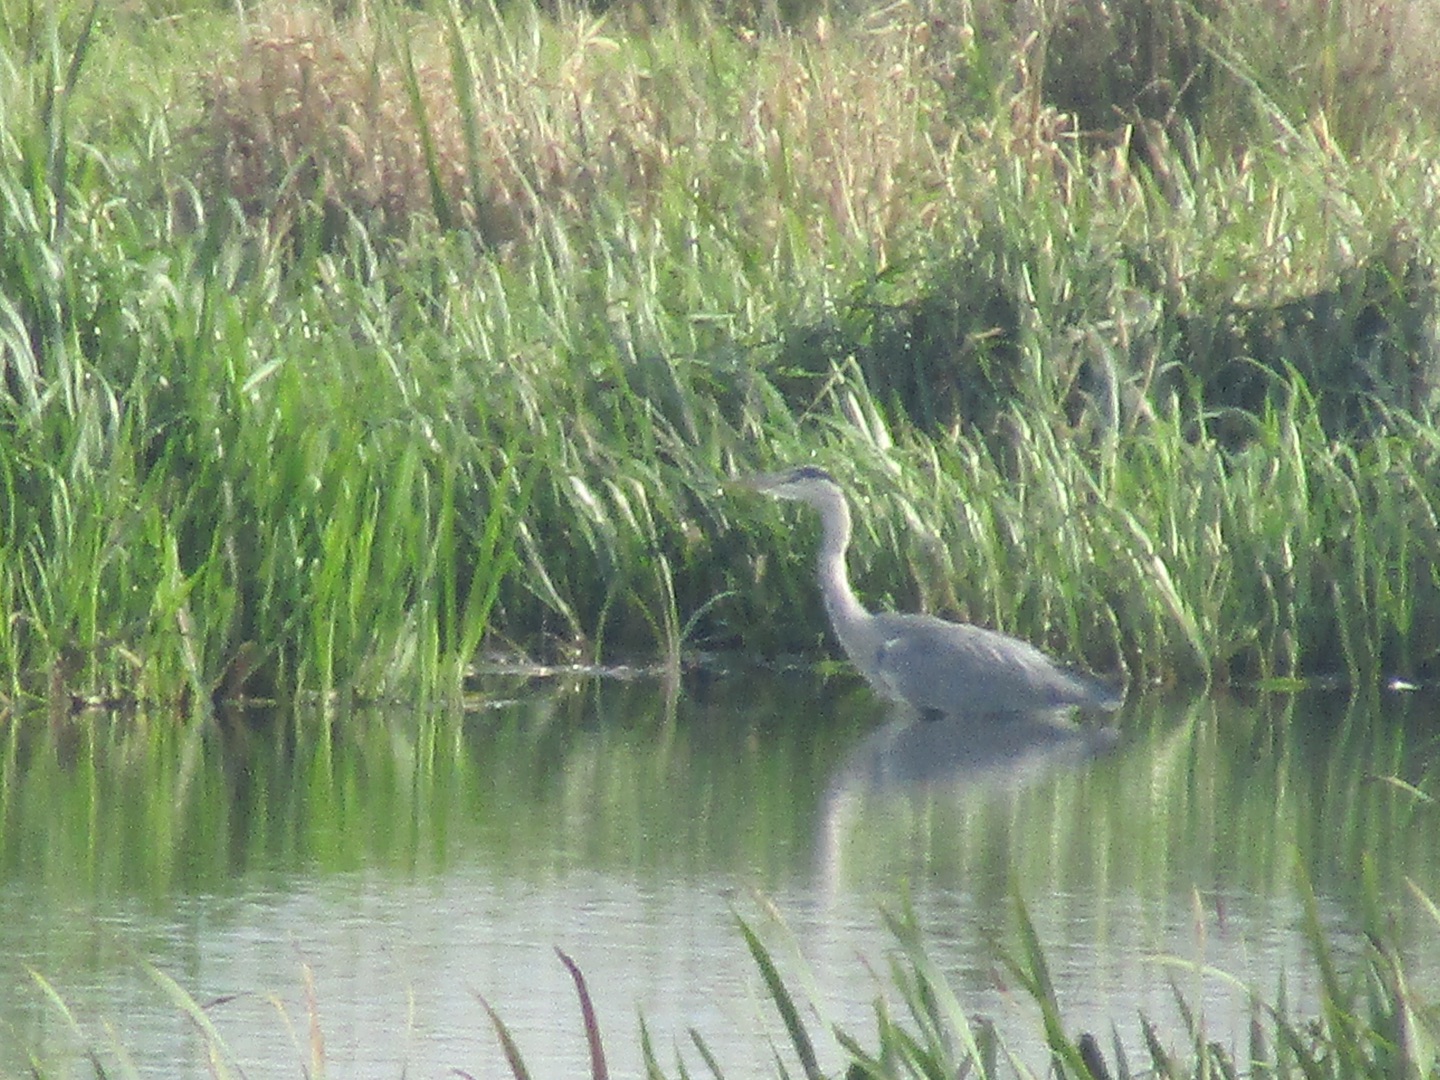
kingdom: Animalia
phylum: Chordata
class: Aves
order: Pelecaniformes
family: Ardeidae
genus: Ardea
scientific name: Ardea cinerea
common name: Fiskehejre
